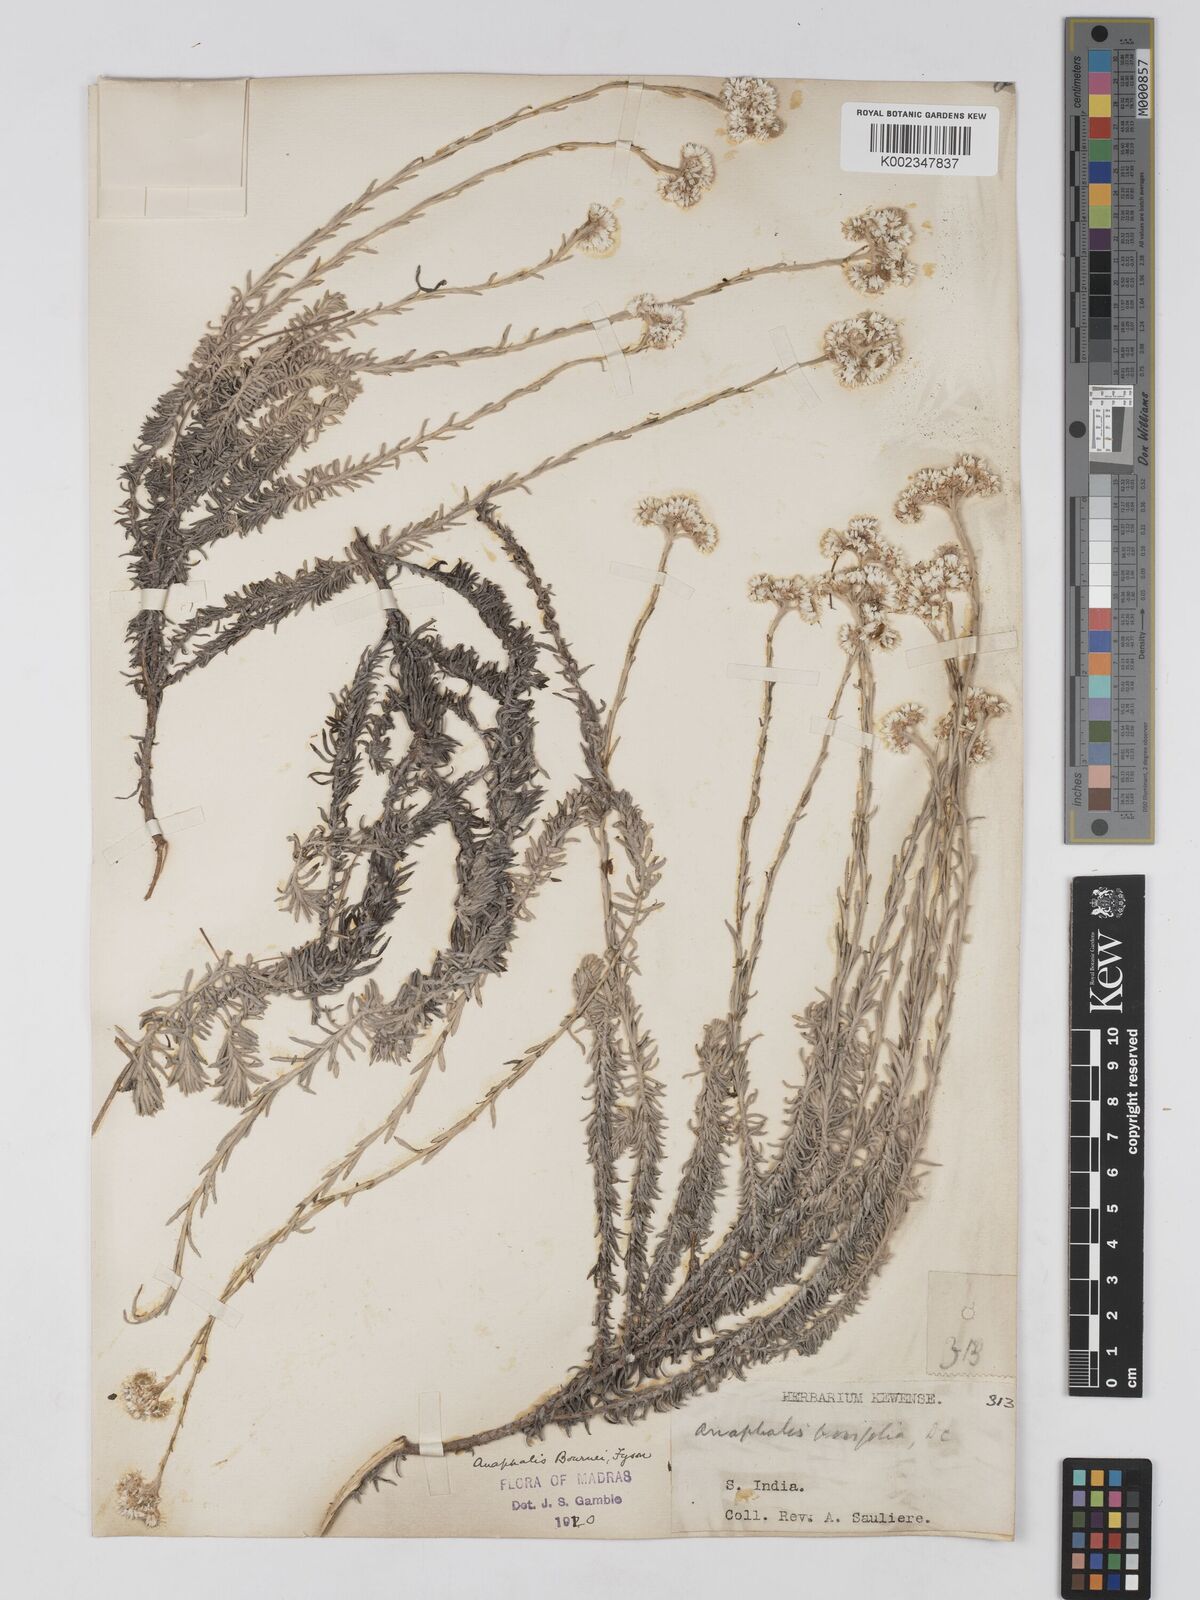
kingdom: Plantae
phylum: Tracheophyta
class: Magnoliopsida
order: Asterales
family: Asteraceae
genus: Anaphalis
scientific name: Anaphalis brevifolia
